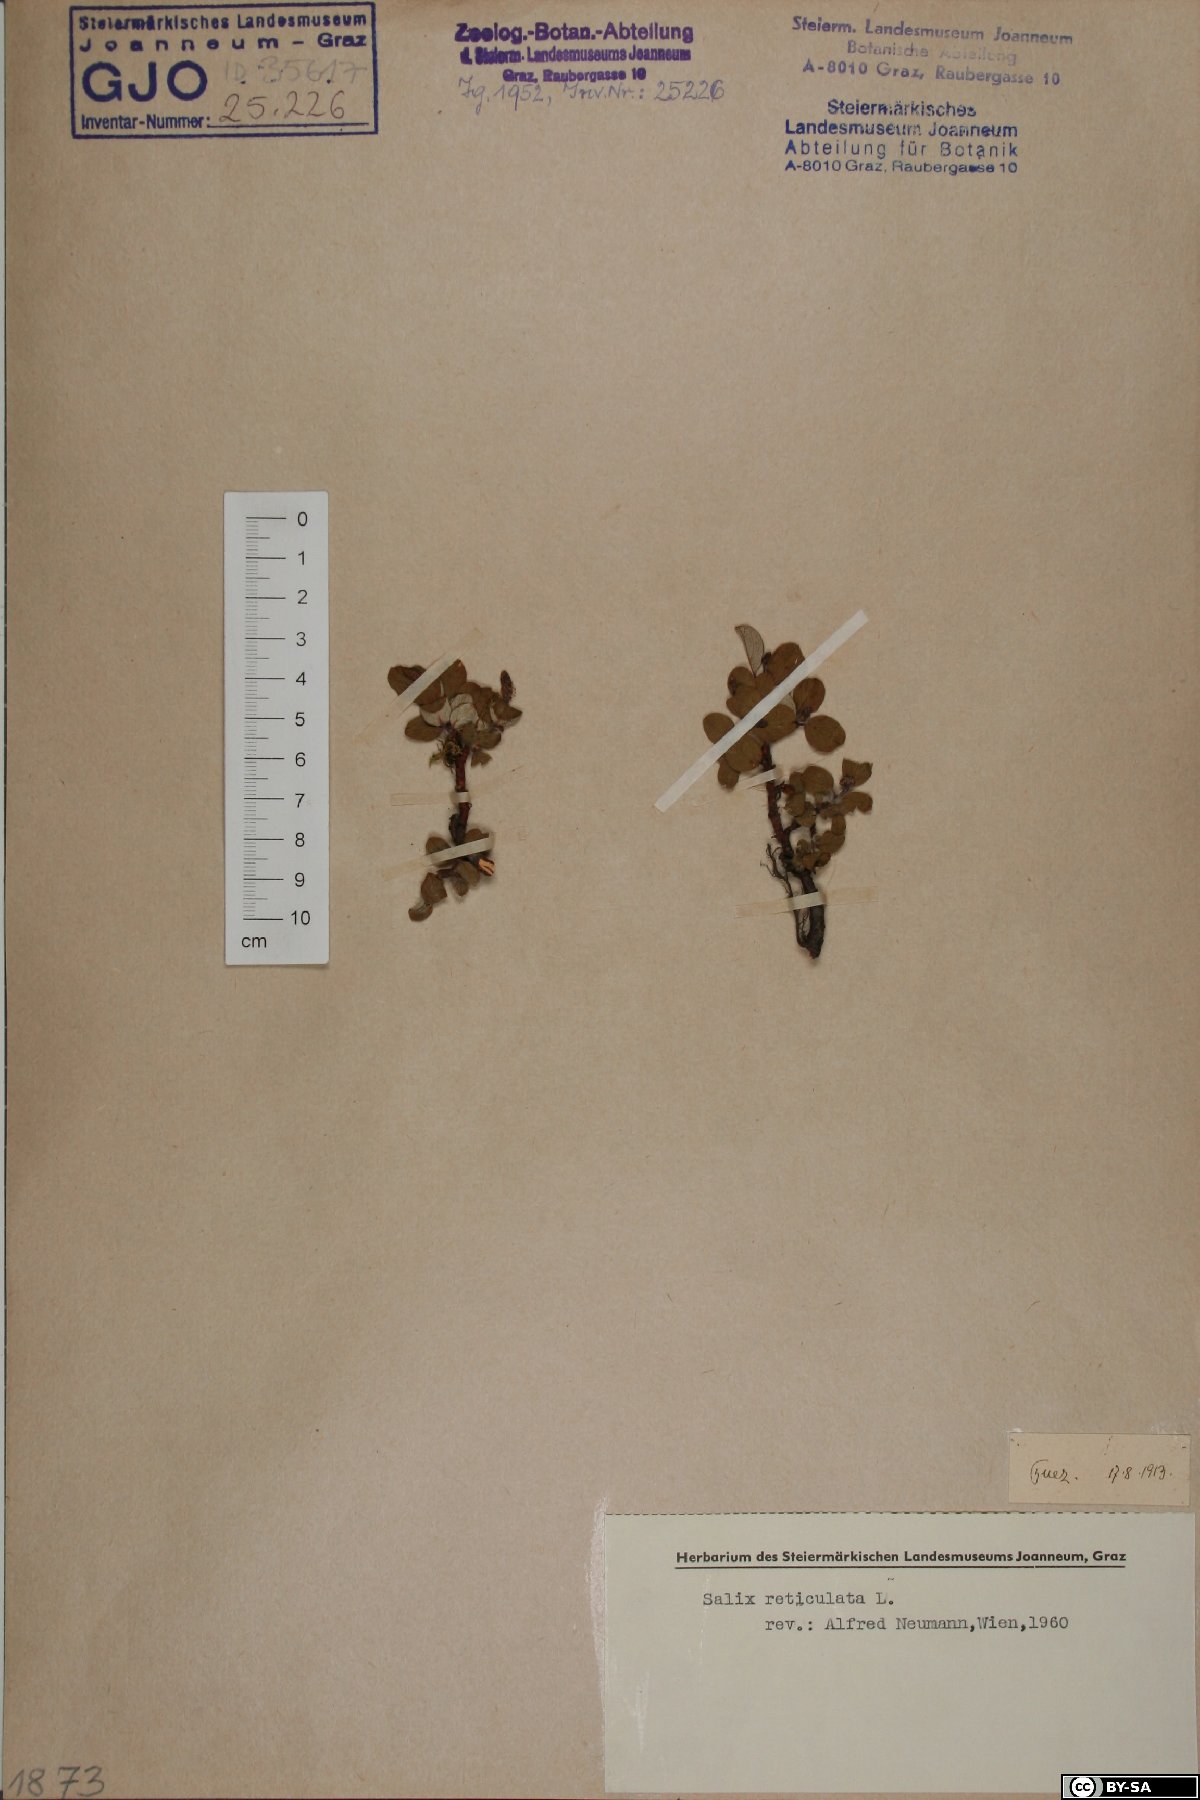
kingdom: Plantae
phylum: Tracheophyta
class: Magnoliopsida
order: Malpighiales
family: Salicaceae
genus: Salix
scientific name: Salix reticulata
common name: Net-leaved willow
